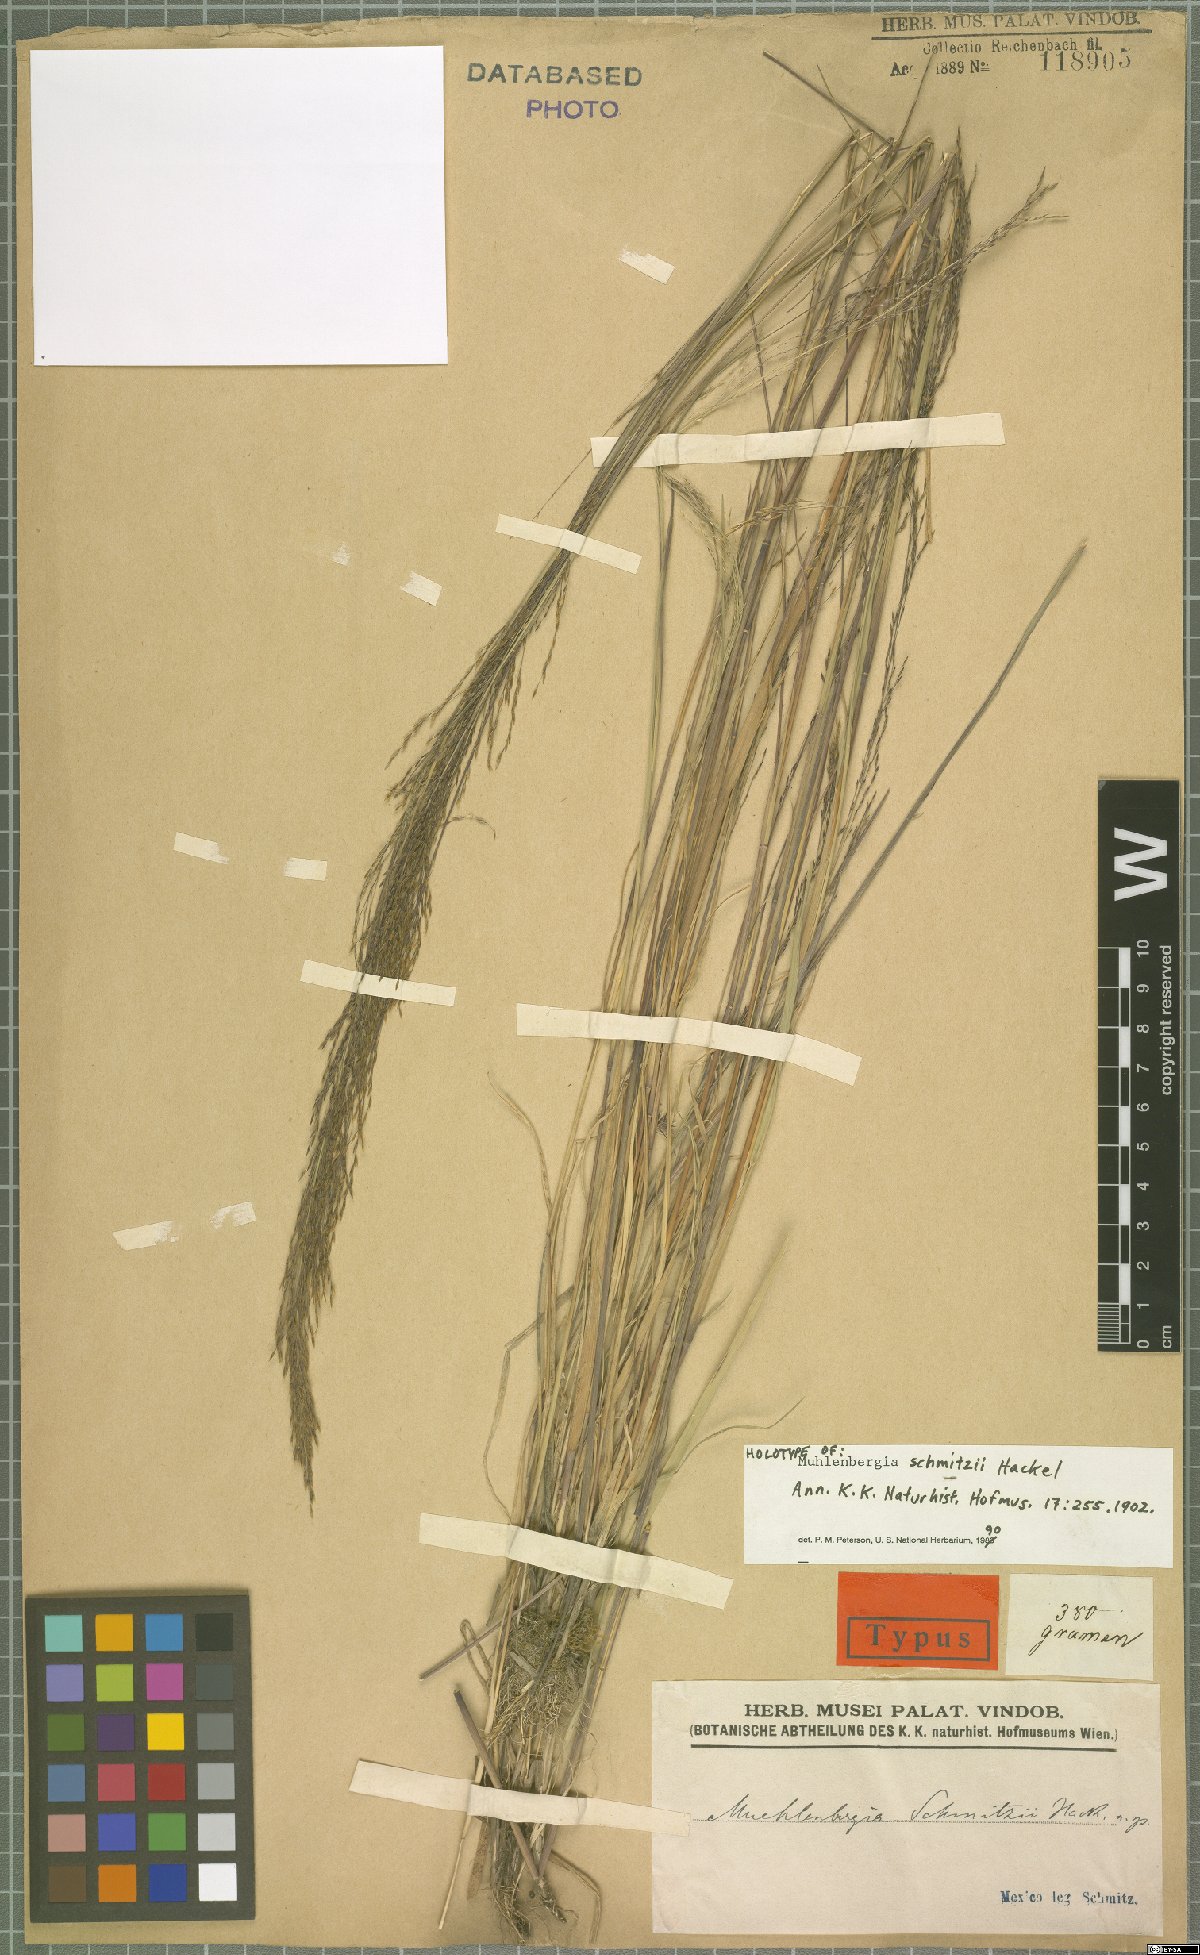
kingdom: Plantae
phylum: Tracheophyta
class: Liliopsida
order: Poales
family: Poaceae
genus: Muhlenbergia
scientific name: Muhlenbergia schmitzii
